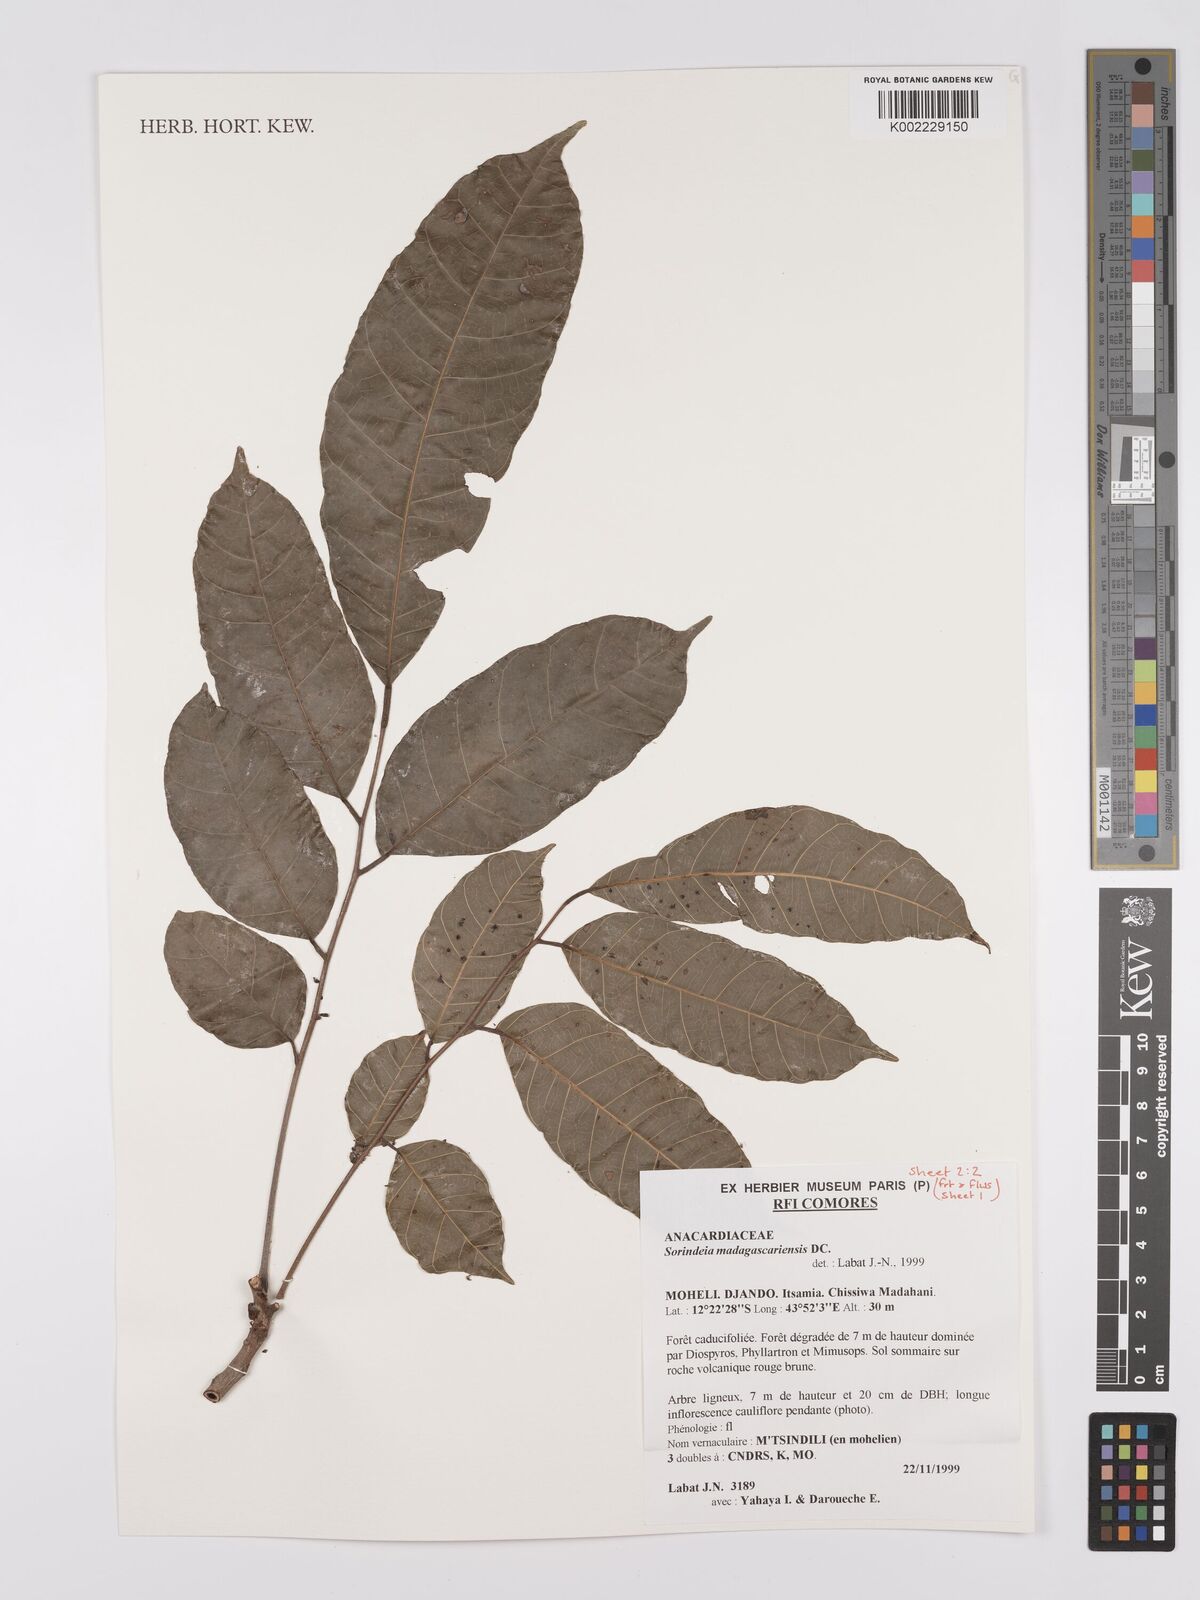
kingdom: Plantae
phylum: Tracheophyta
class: Magnoliopsida
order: Sapindales
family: Anacardiaceae
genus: Sorindeia
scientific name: Sorindeia madagascariensis
